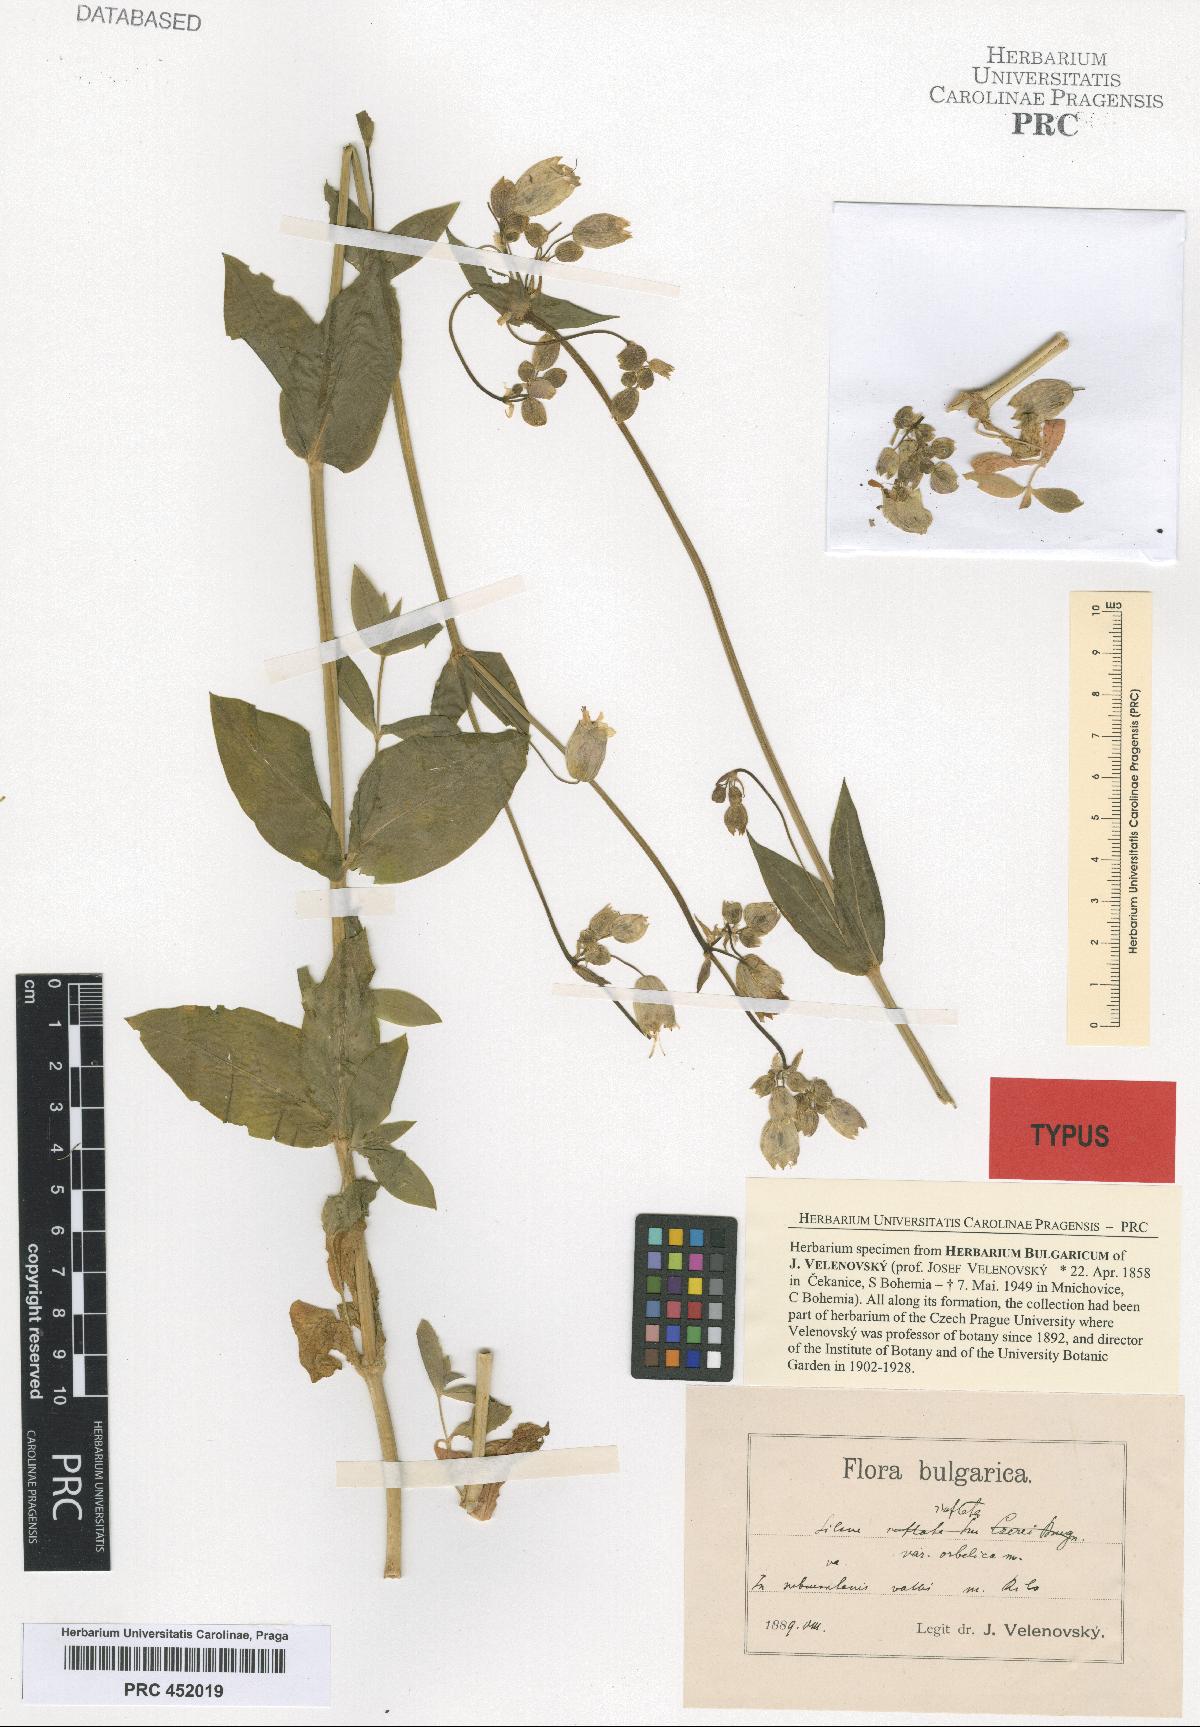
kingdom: Plantae
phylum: Tracheophyta
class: Magnoliopsida
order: Caryophyllales
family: Caryophyllaceae
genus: Silene
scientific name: Silene vulgaris
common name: Bladder campion
